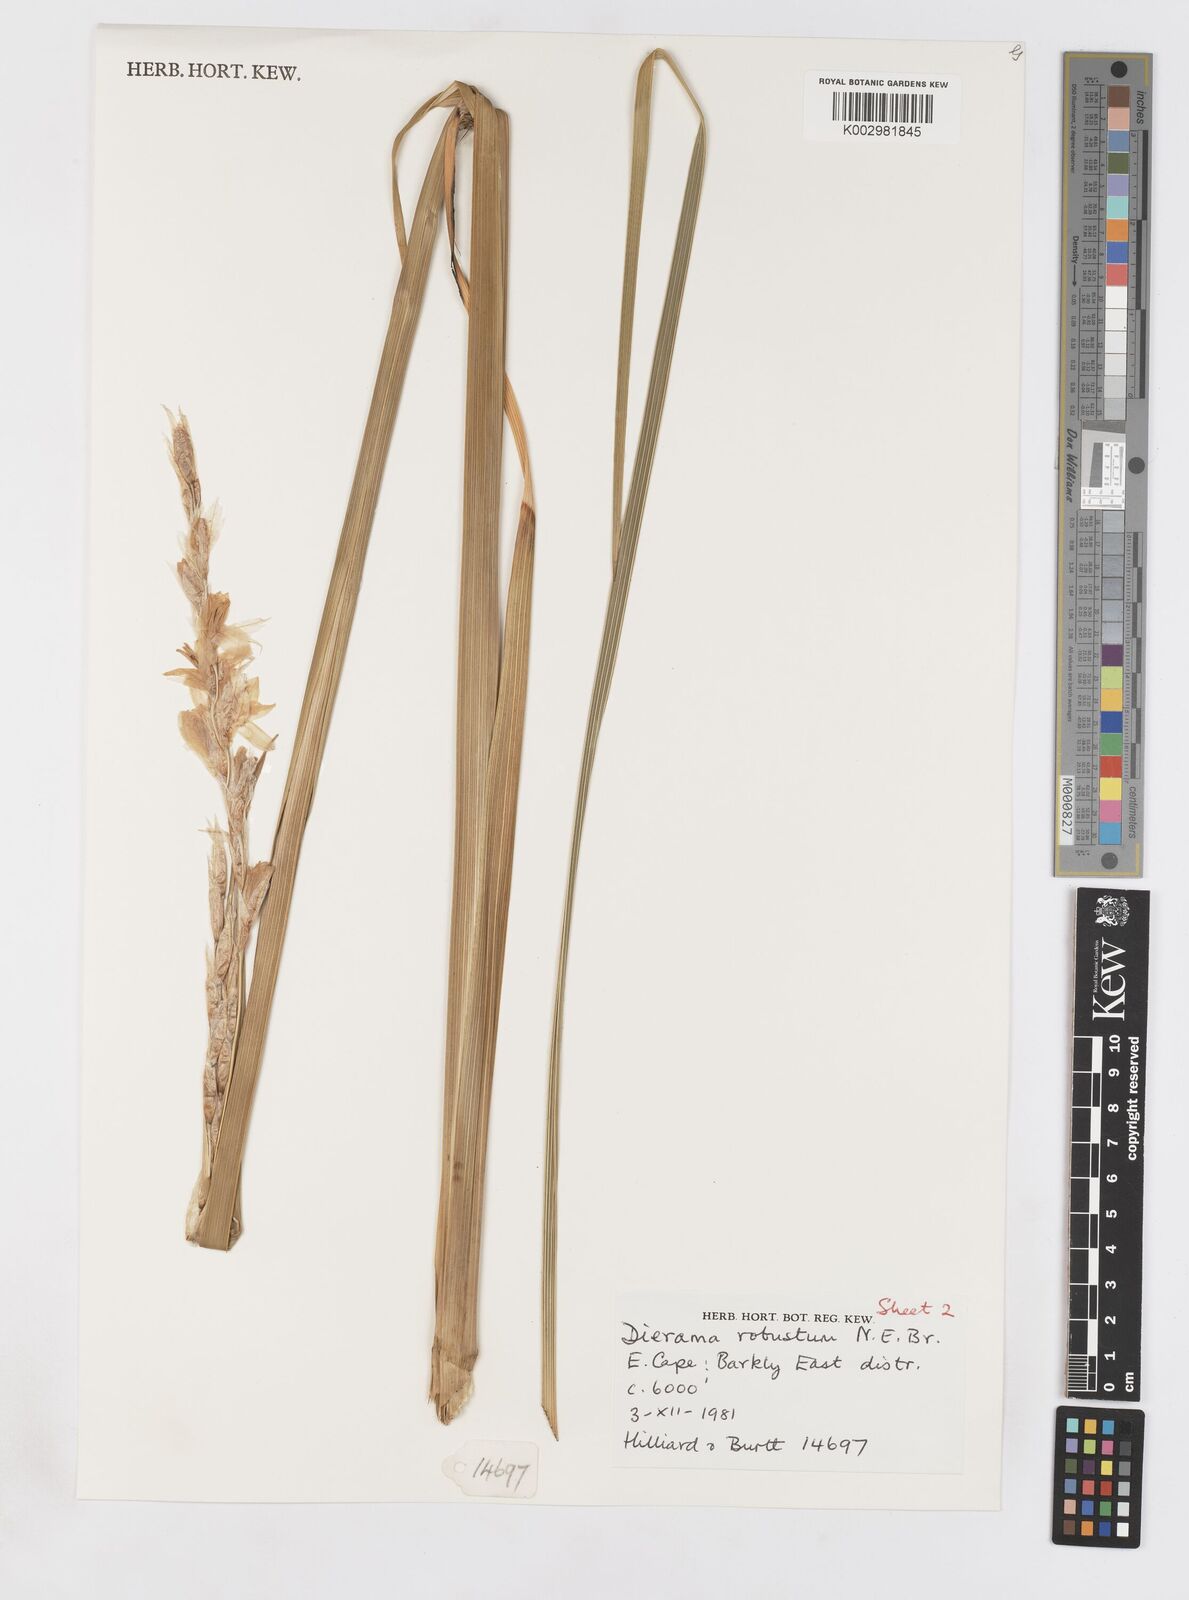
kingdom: Plantae
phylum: Tracheophyta
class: Liliopsida
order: Asparagales
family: Iridaceae
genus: Dierama
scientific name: Dierama robustum
